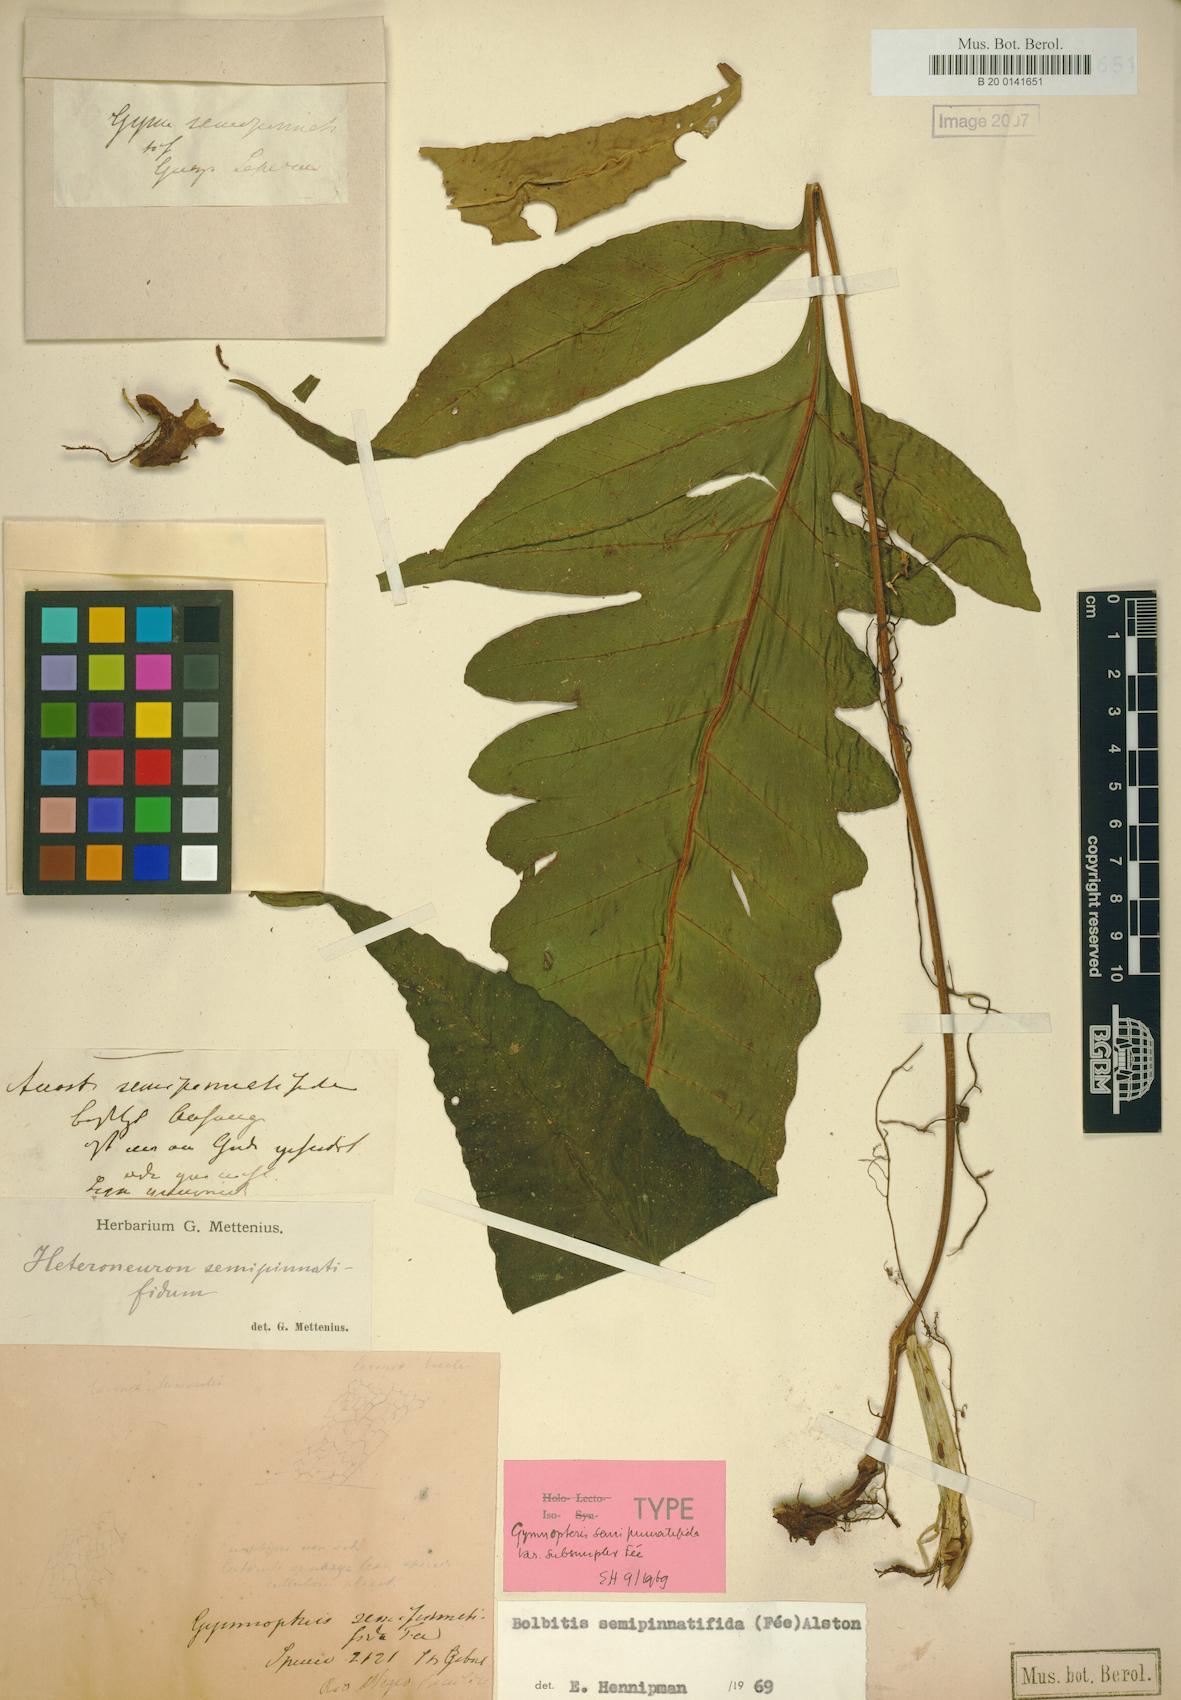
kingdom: Plantae
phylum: Tracheophyta
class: Polypodiopsida
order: Polypodiales
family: Dryopteridaceae
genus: Bolbitis
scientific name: Bolbitis semipinnatifida
